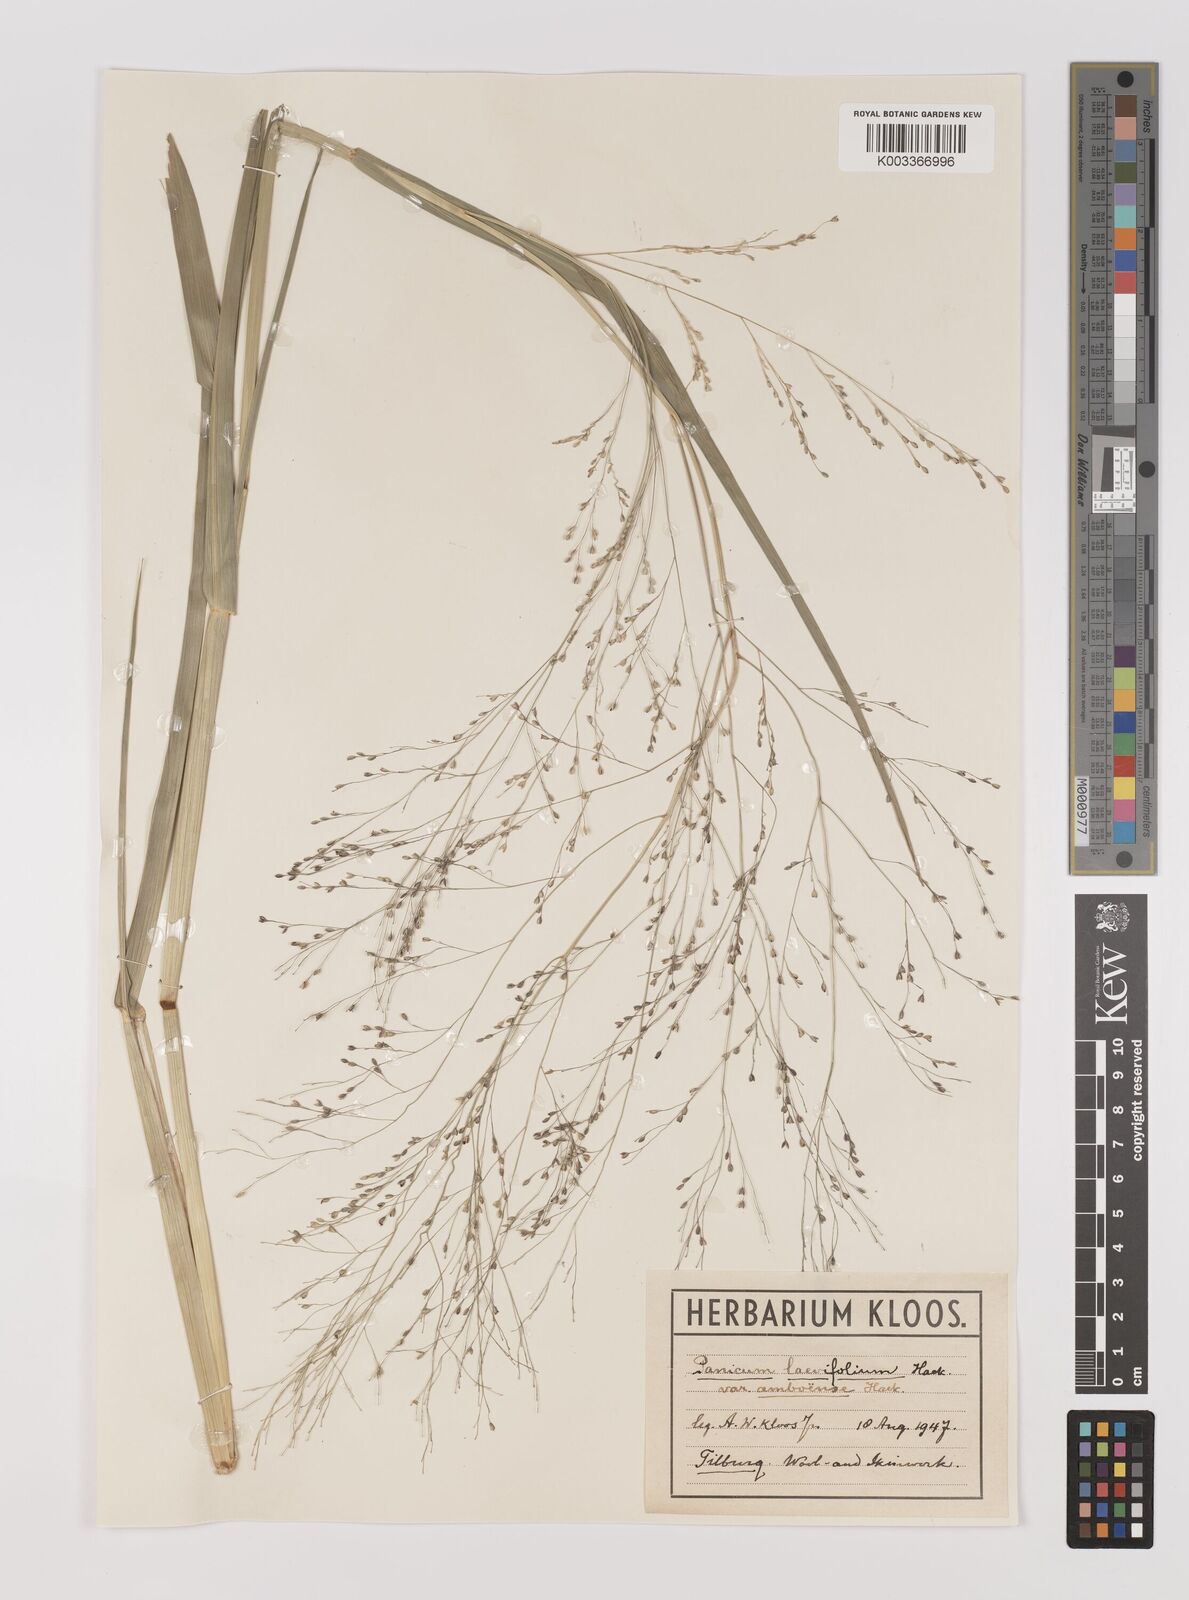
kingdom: Plantae
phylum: Tracheophyta
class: Liliopsida
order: Poales
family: Poaceae
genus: Panicum
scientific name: Panicum schinzii
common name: Sweet grass
